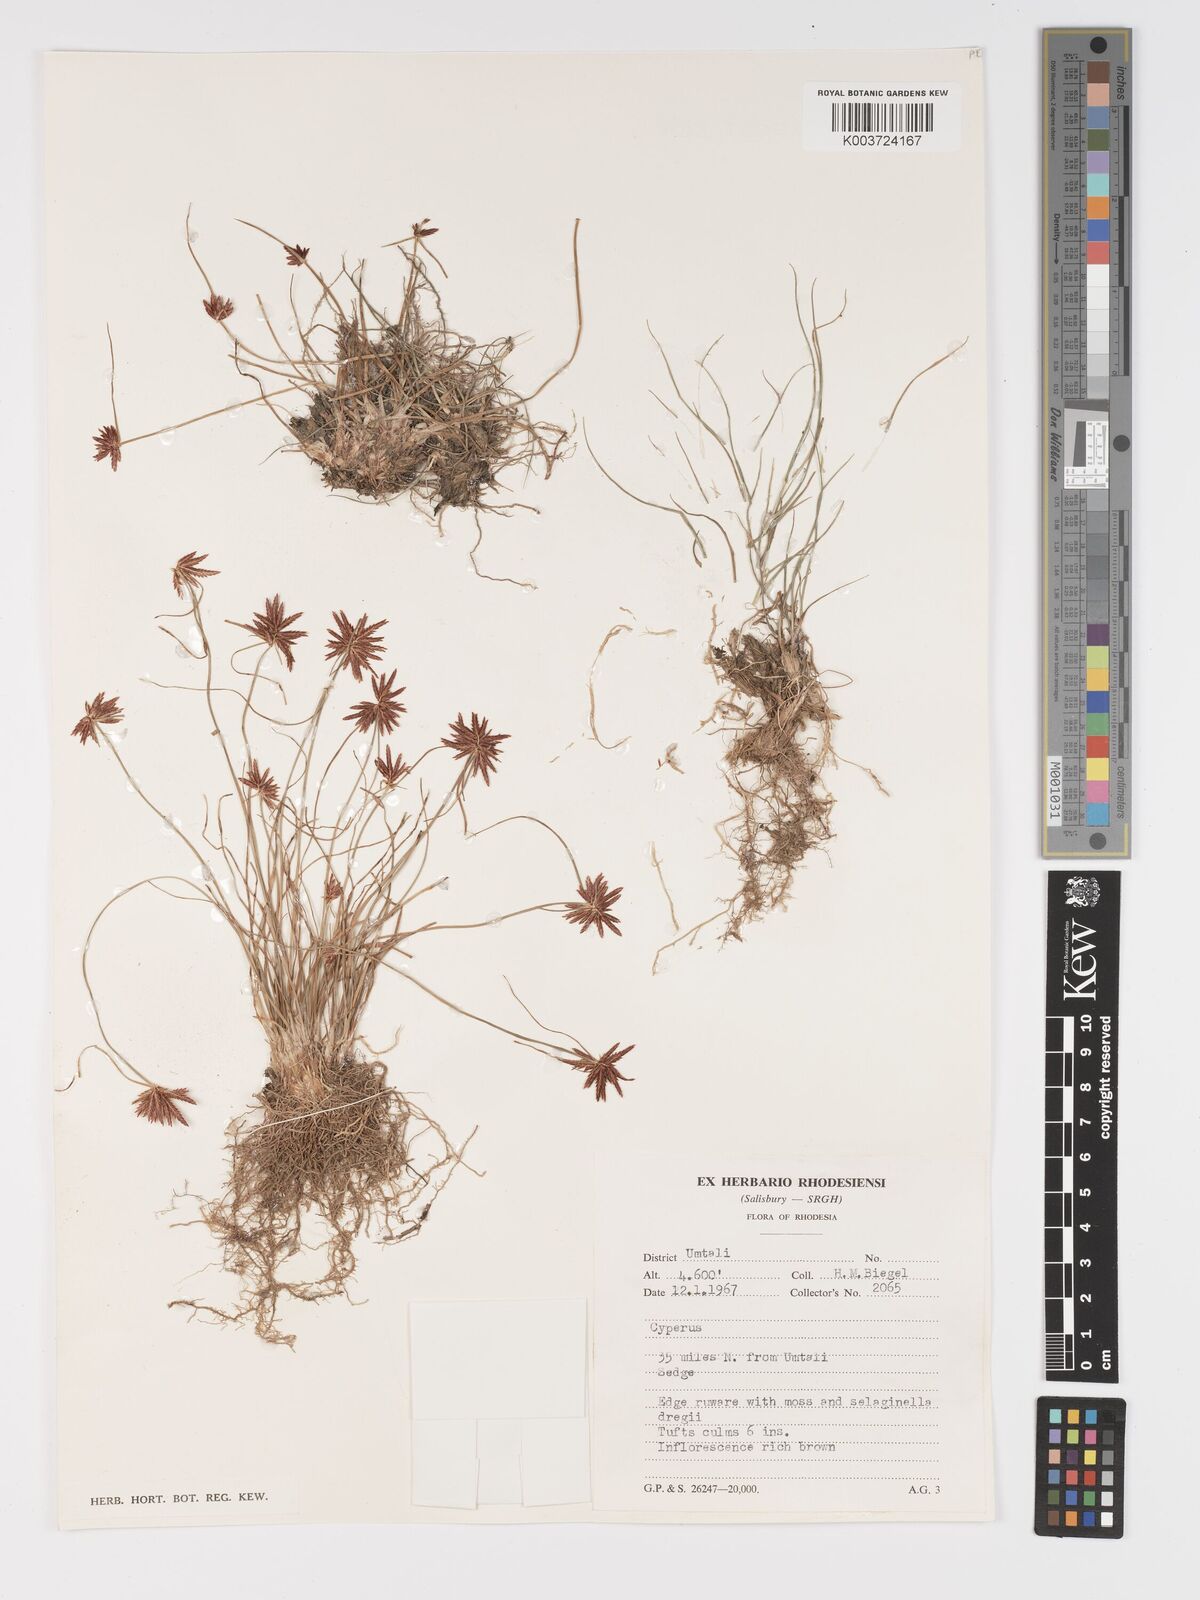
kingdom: Plantae
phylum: Tracheophyta
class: Liliopsida
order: Poales
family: Cyperaceae
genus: Cyperus
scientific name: Cyperus rupestris
